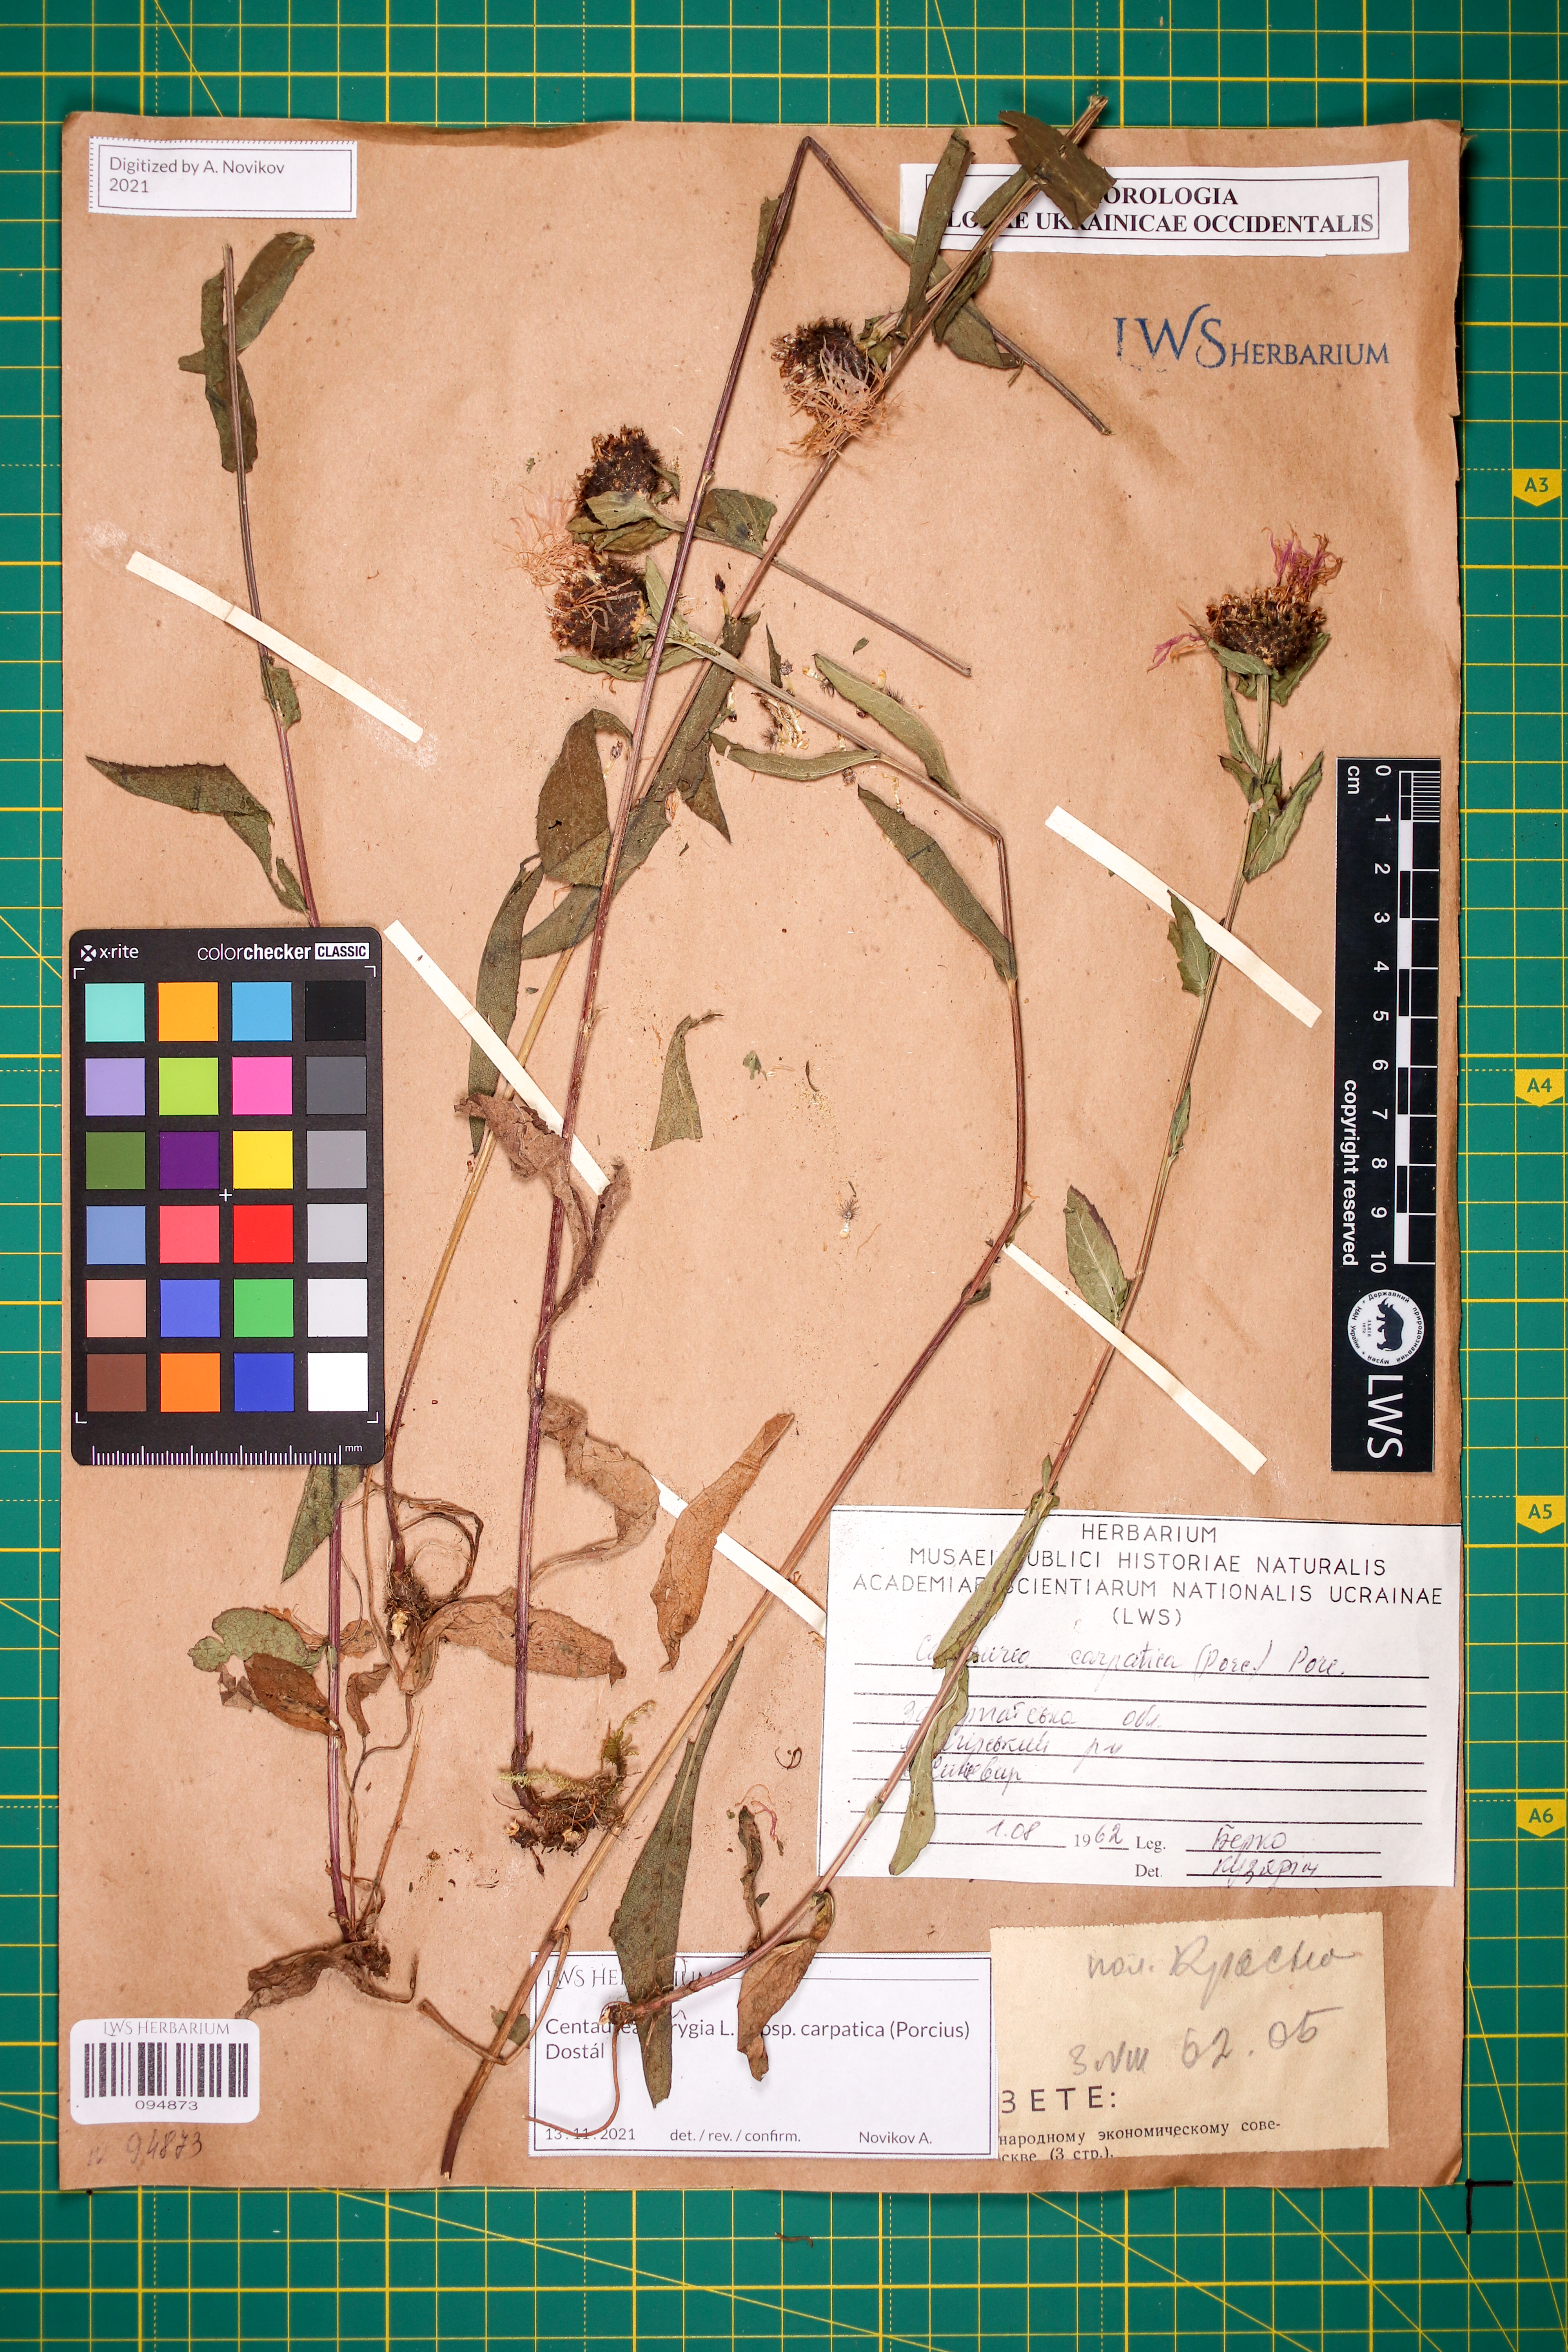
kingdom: Plantae
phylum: Tracheophyta
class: Magnoliopsida
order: Asterales
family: Asteraceae
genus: Centaurea
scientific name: Centaurea phrygia
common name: Wig knapweed
